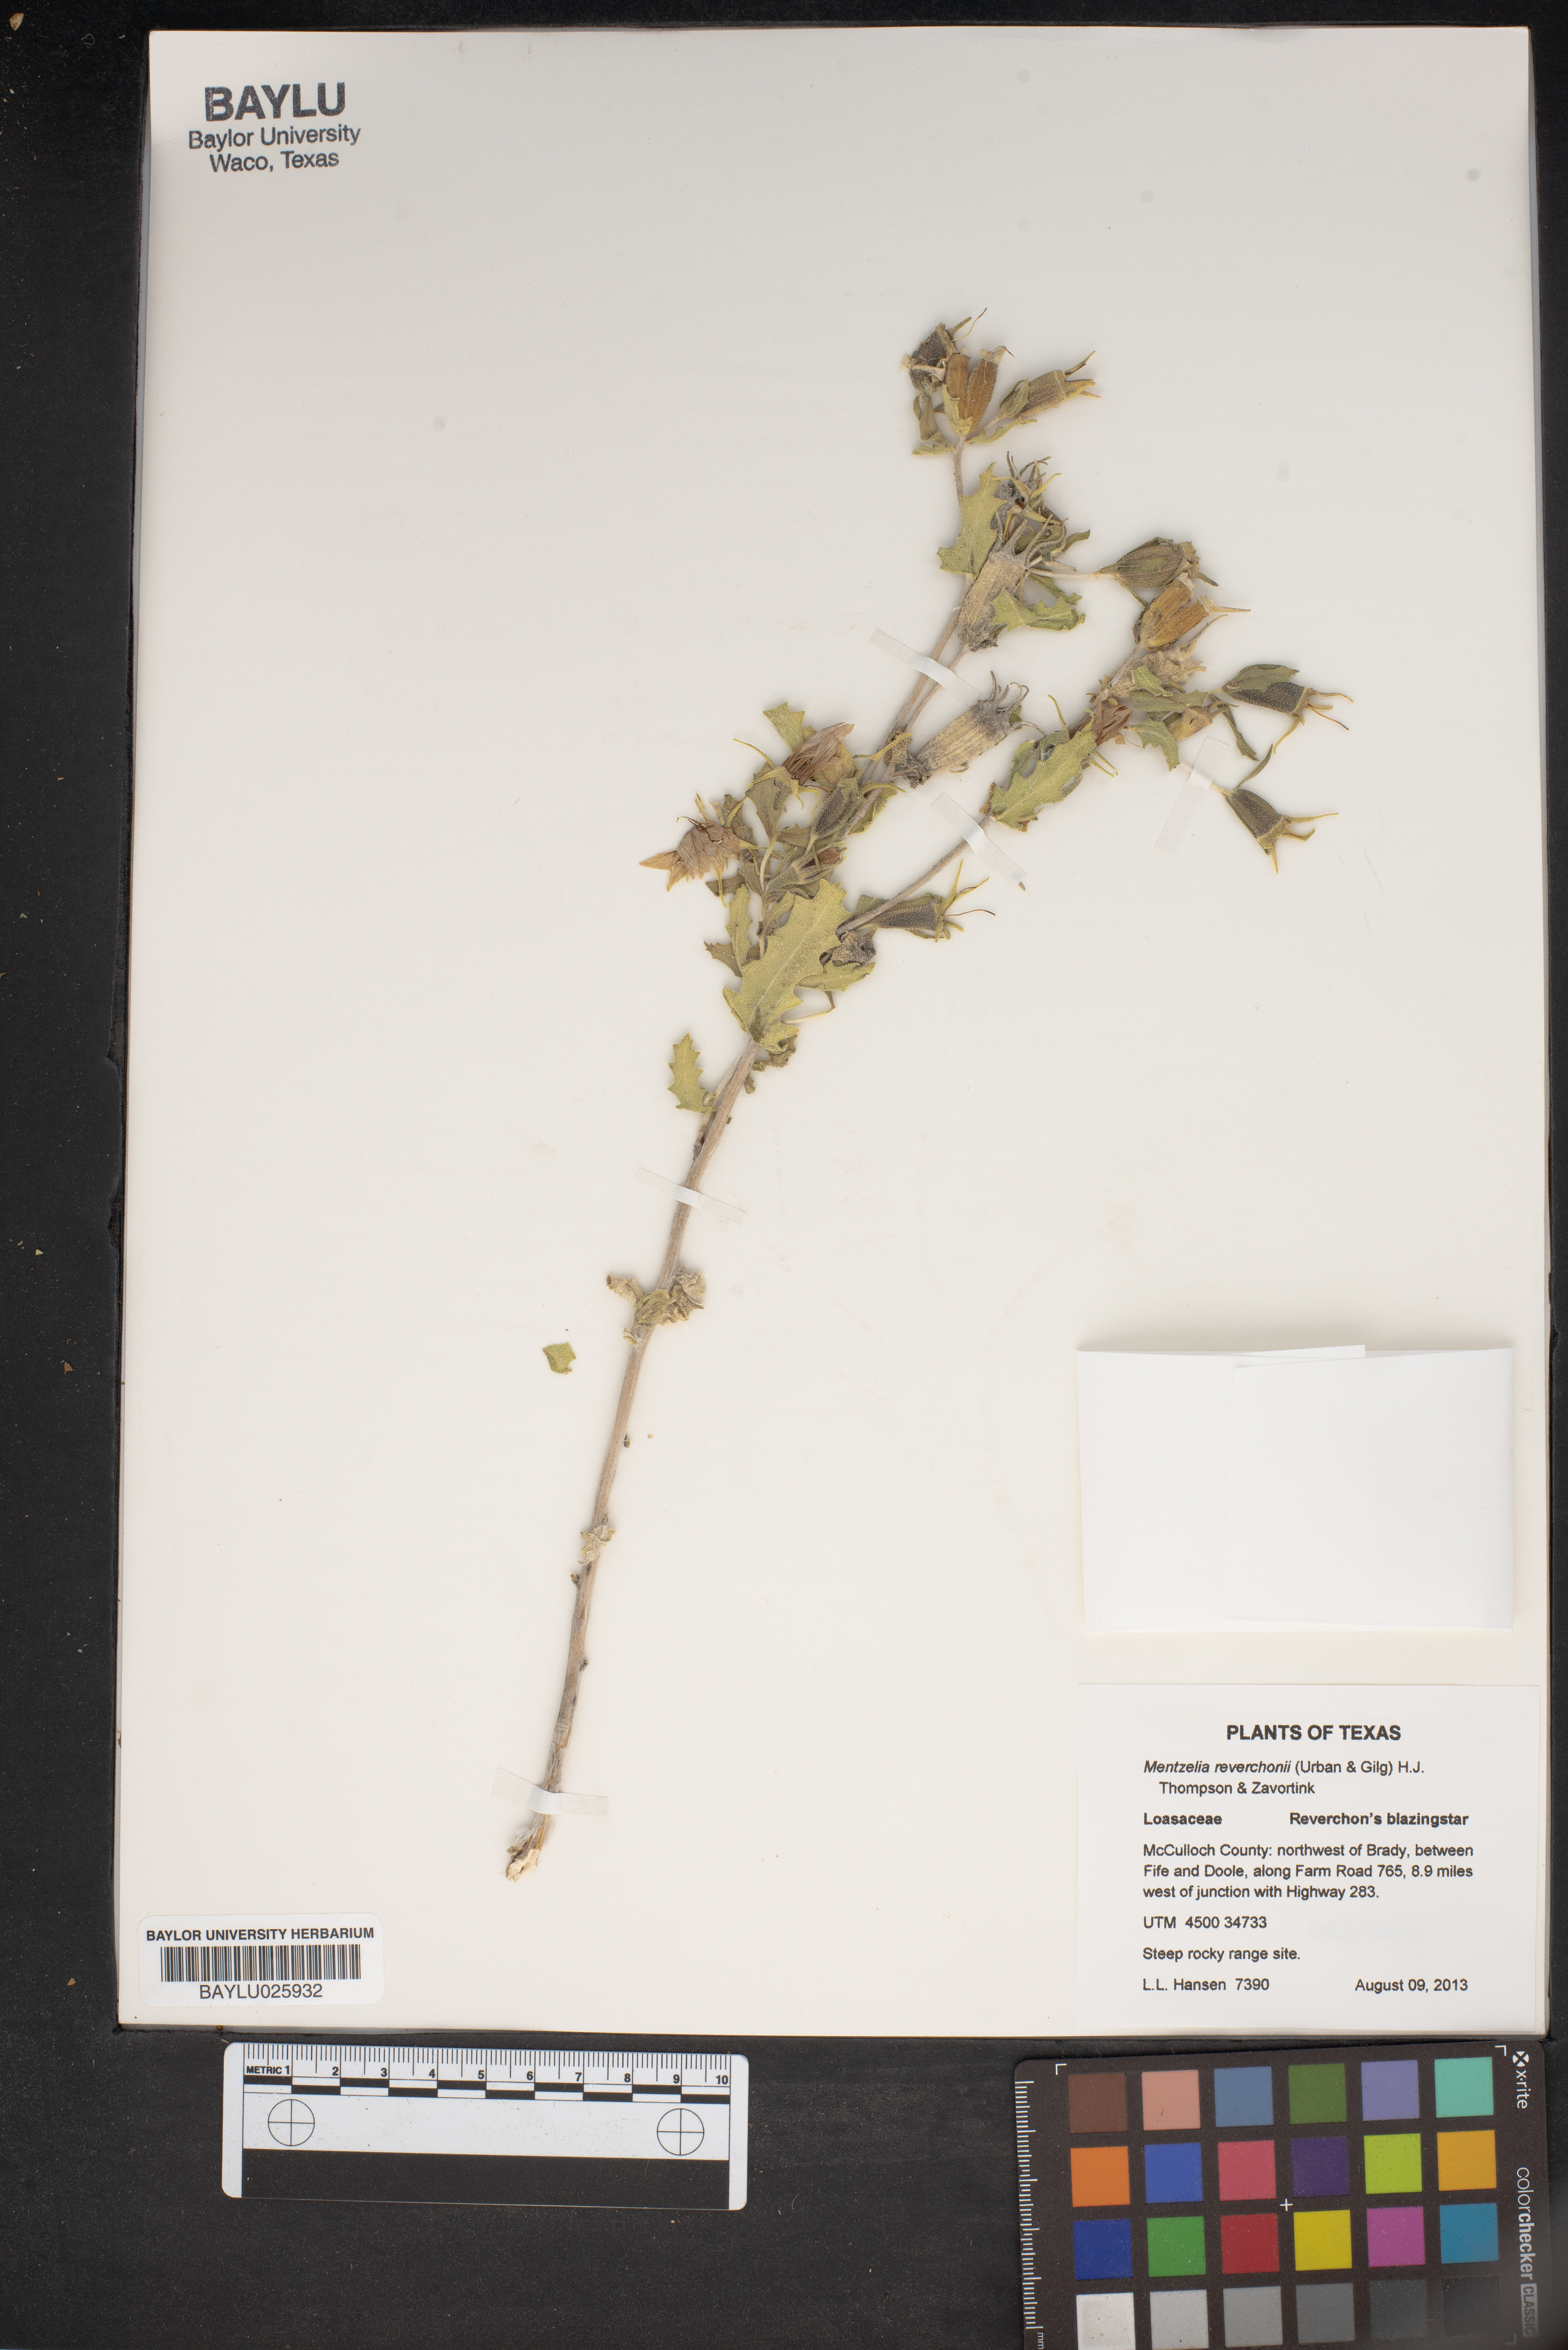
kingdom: Plantae
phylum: Tracheophyta
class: Magnoliopsida
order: Cornales
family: Loasaceae
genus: Mentzelia
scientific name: Mentzelia reverchonii
